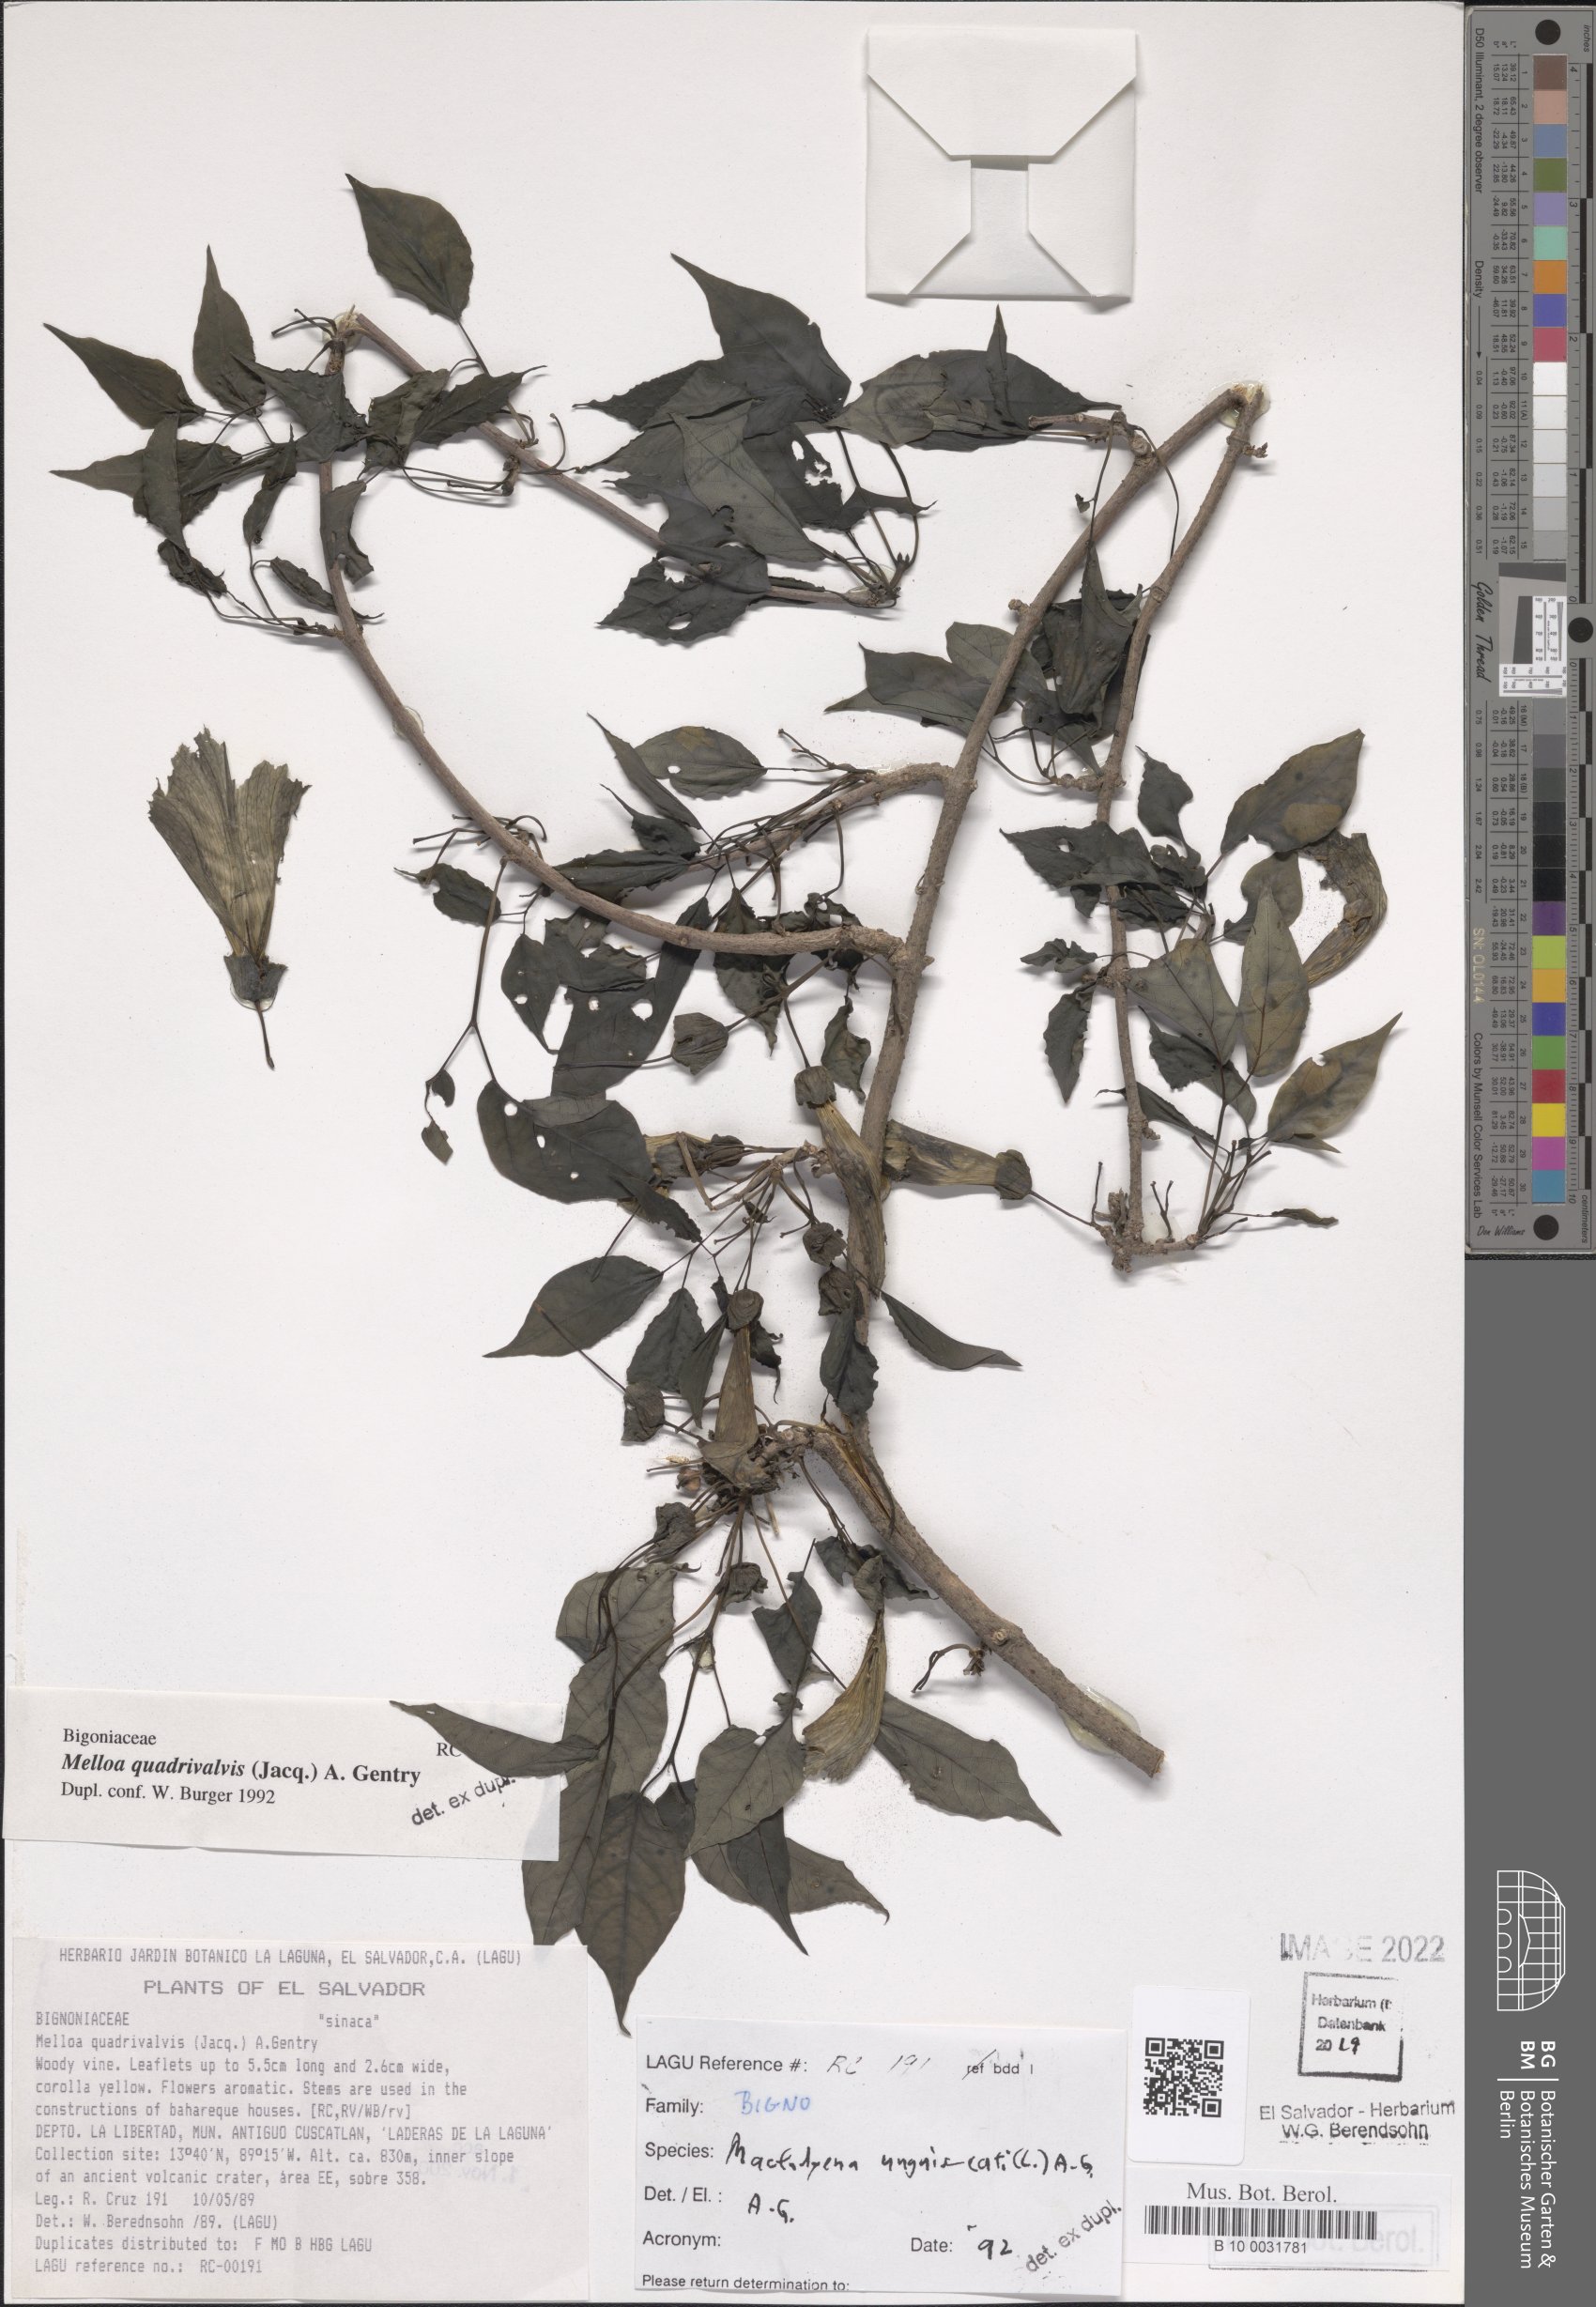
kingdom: Plantae
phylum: Tracheophyta
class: Magnoliopsida
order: Lamiales
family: Bignoniaceae
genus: Dolichandra
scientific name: Dolichandra unguis-cati
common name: Catclaw vine
